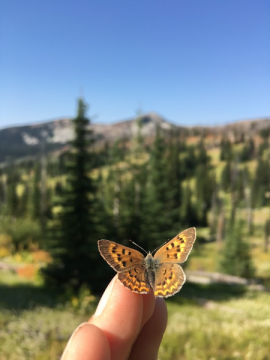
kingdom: Animalia
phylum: Arthropoda
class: Insecta
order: Lepidoptera
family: Sesiidae
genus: Sesia
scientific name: Sesia Lycaena helloides
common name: Purplish Copper
